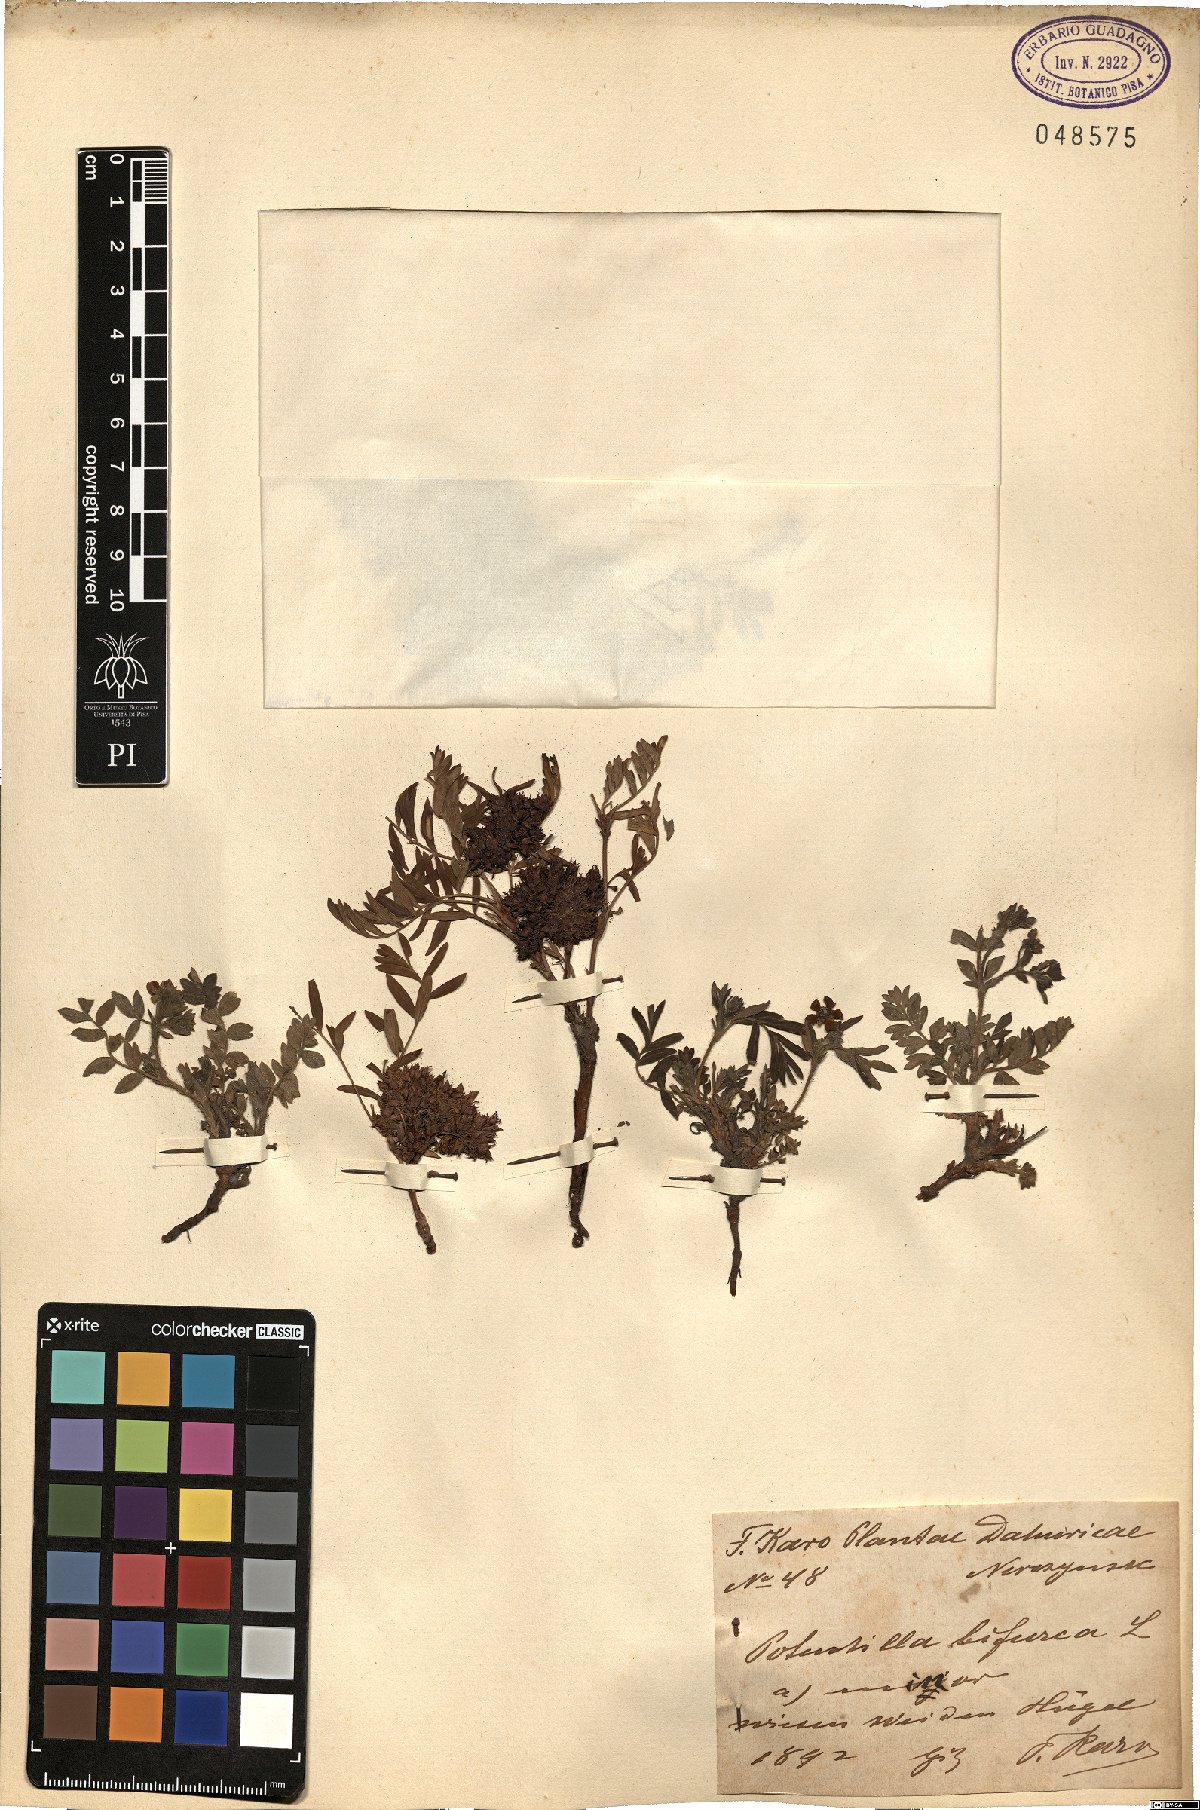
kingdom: Plantae
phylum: Tracheophyta
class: Magnoliopsida
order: Rosales
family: Rosaceae
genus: Sibbaldianthe
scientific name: Sibbaldianthe bifurca
